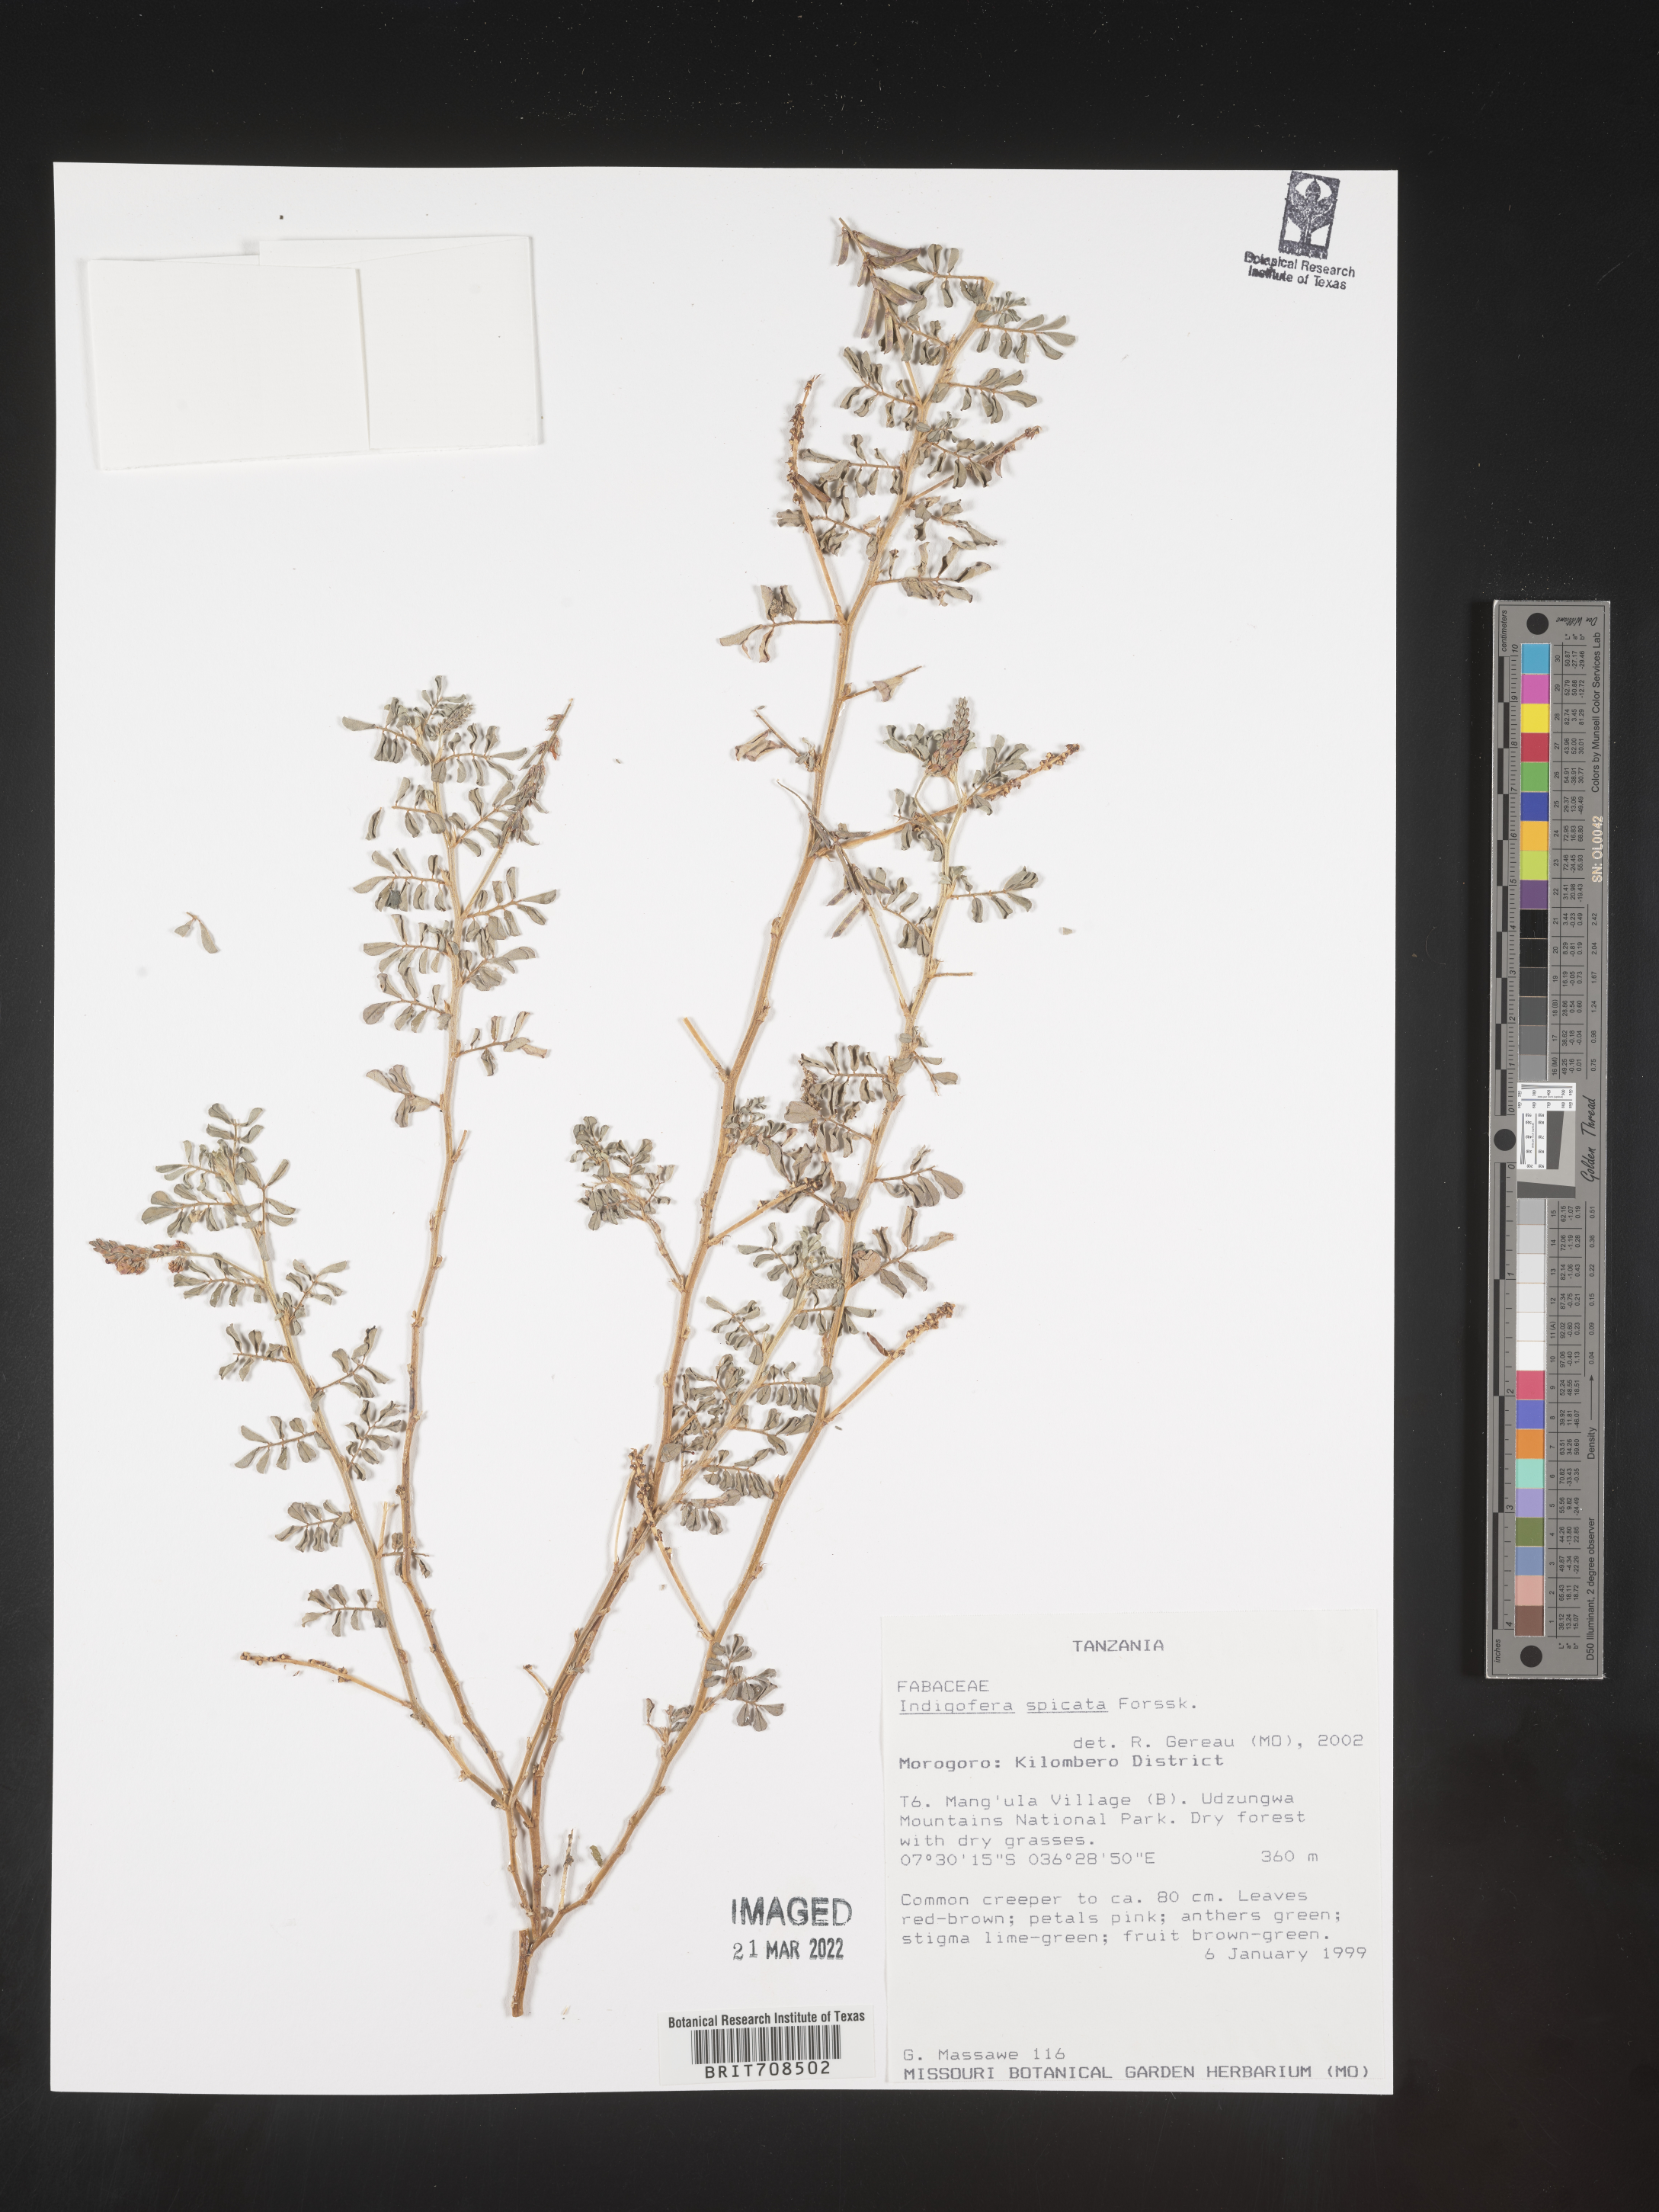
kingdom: Plantae
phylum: Tracheophyta
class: Magnoliopsida
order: Fabales
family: Fabaceae
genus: Indigofera
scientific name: Indigofera
